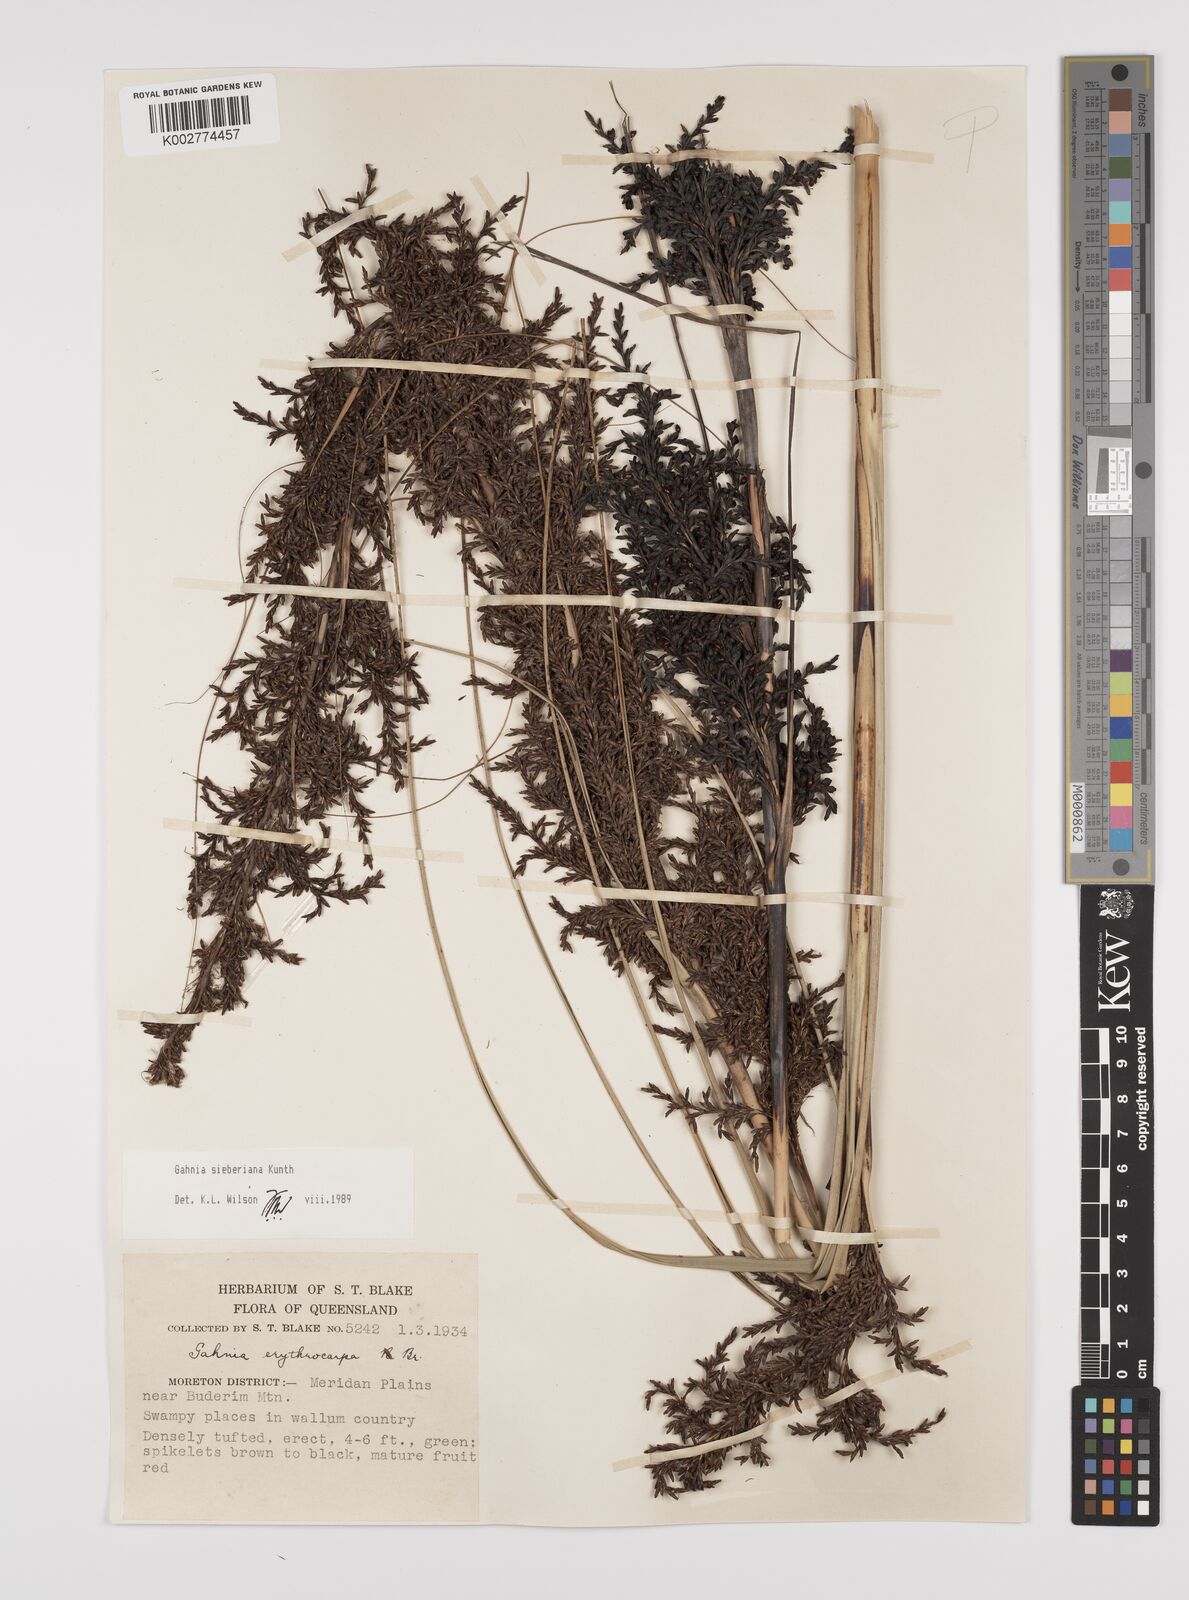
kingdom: Plantae
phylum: Tracheophyta
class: Liliopsida
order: Poales
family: Cyperaceae
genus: Gahnia
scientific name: Gahnia sieberiana
